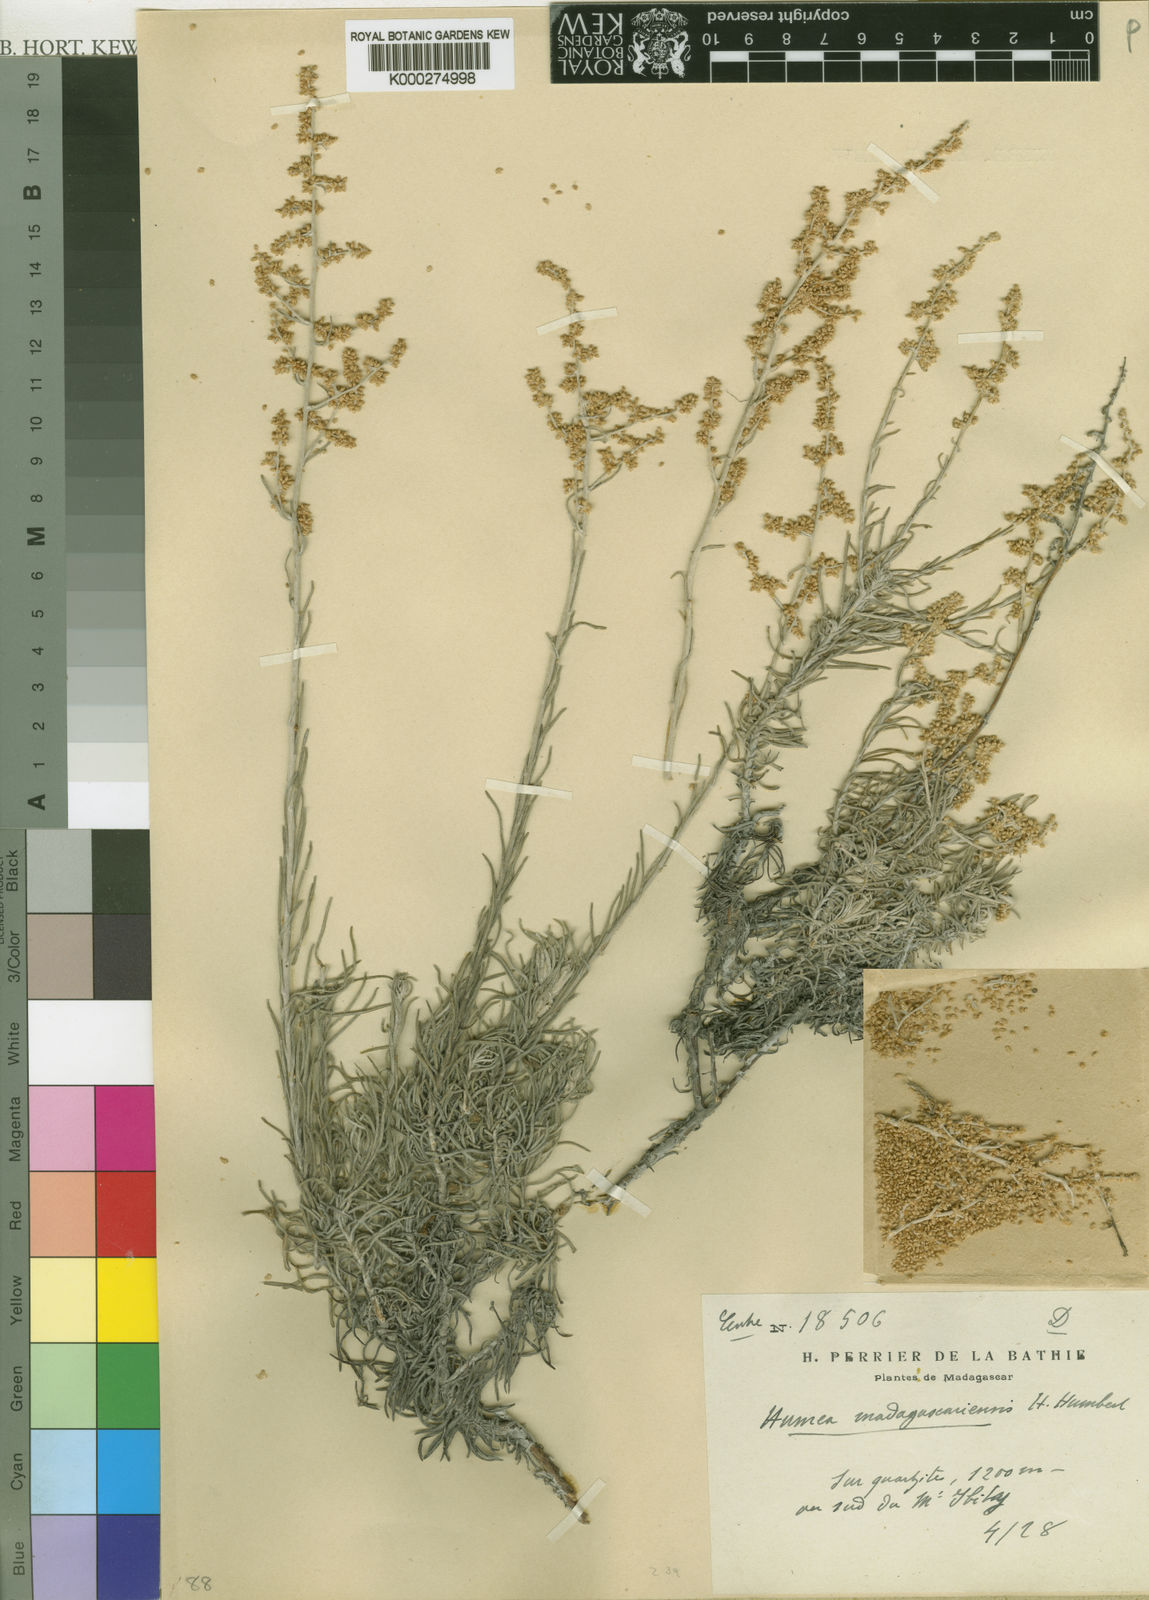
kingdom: Plantae
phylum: Tracheophyta
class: Magnoliopsida
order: Asterales
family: Asteraceae
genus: Humeocline
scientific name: Humeocline madagascariensis
